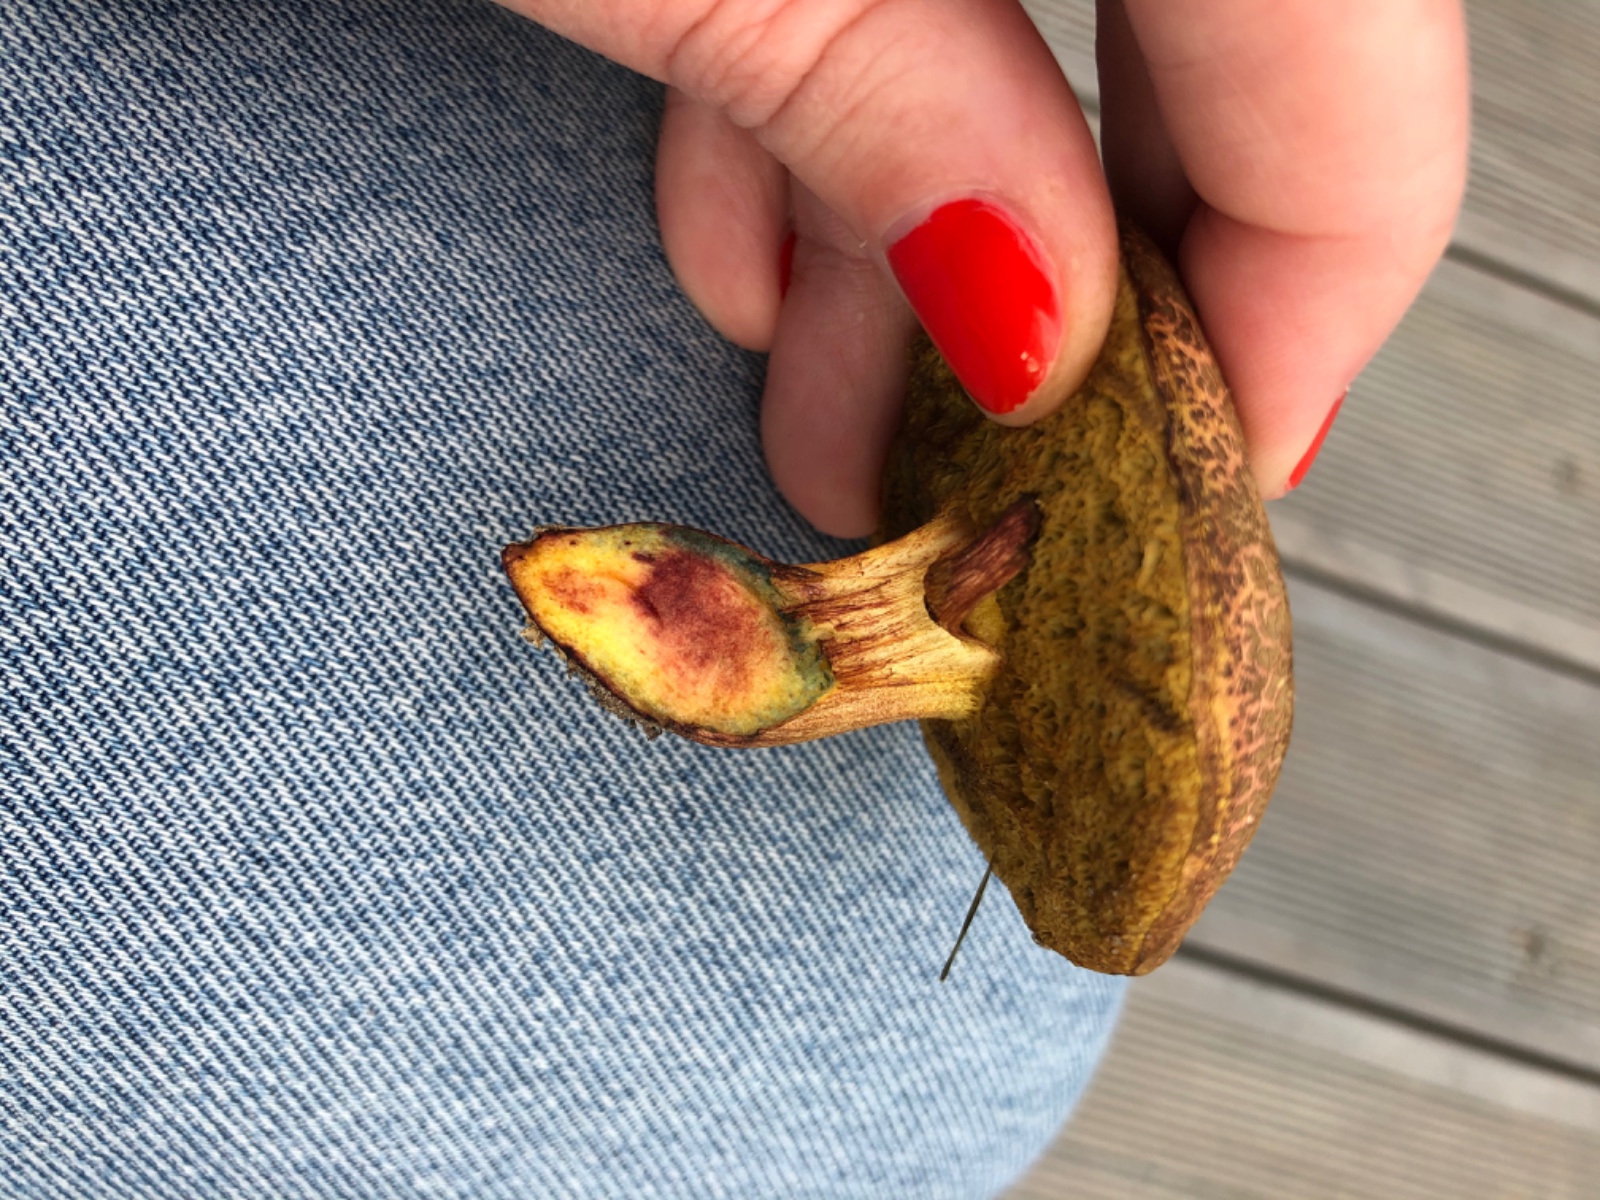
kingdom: Fungi
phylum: Basidiomycota
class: Agaricomycetes
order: Boletales
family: Boletaceae
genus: Xerocomellus
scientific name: Xerocomellus cisalpinus
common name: finsprukken rørhat
